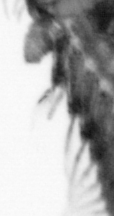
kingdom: Animalia
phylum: Annelida
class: Polychaeta
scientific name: Polychaeta
